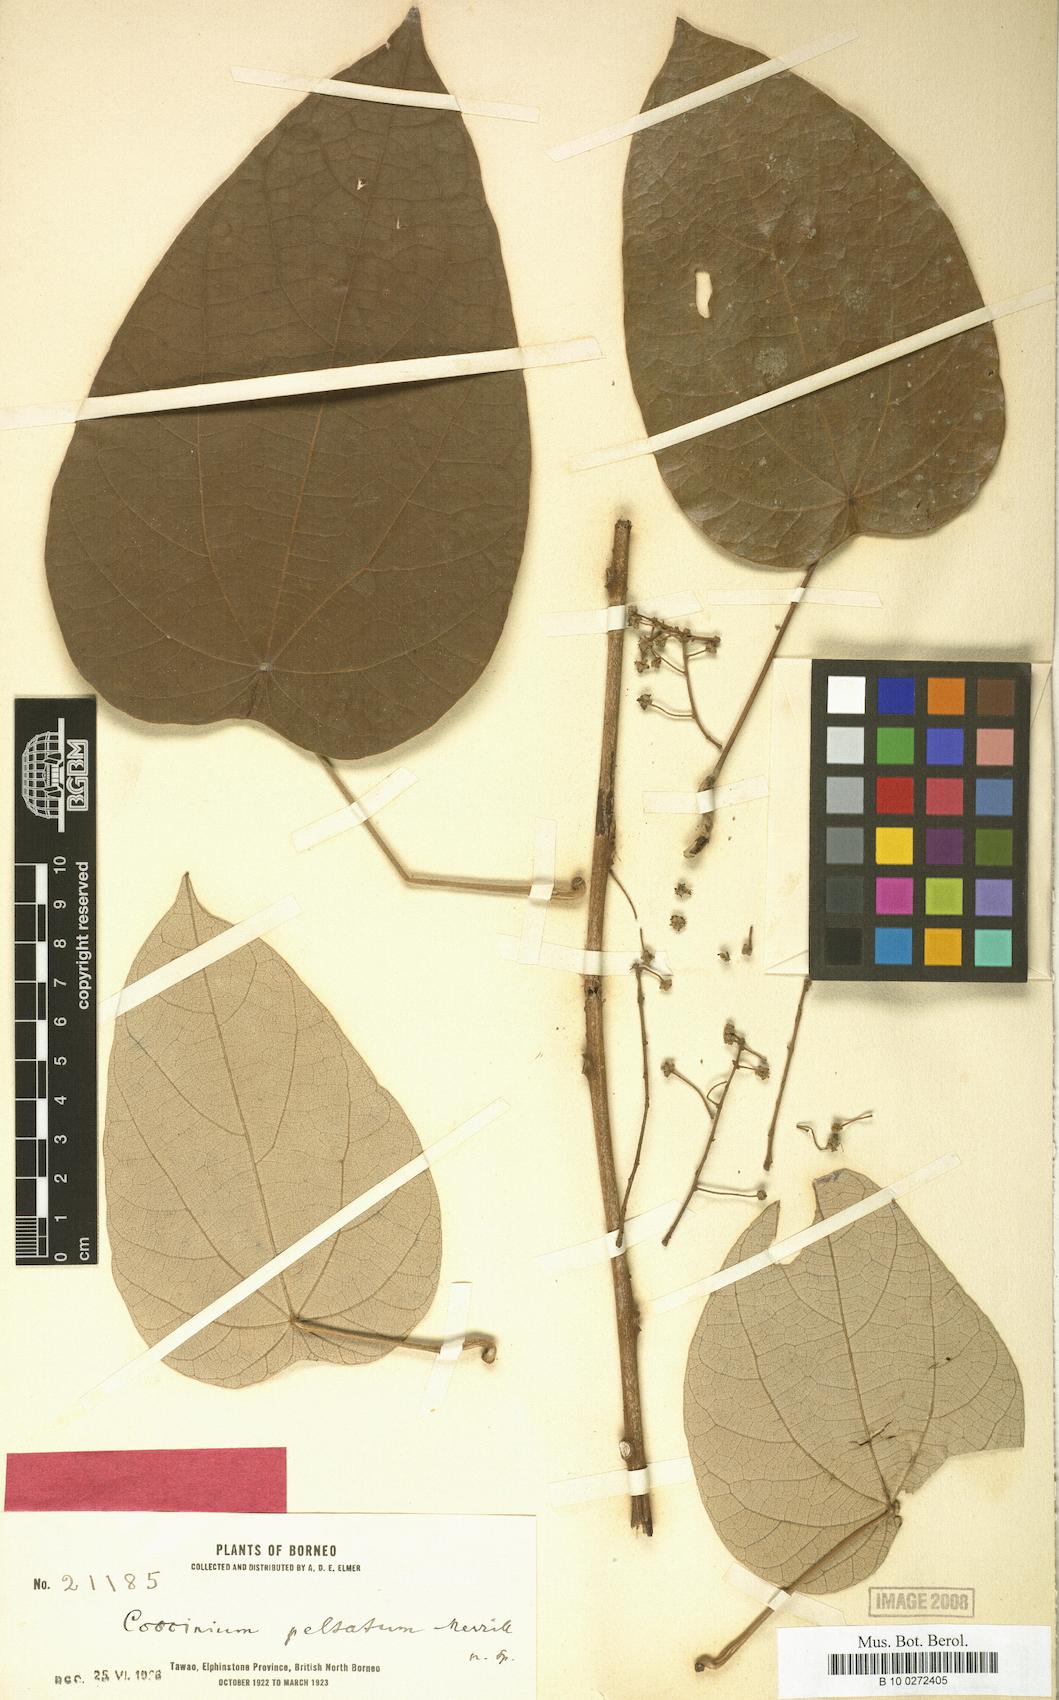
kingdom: Plantae
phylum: Tracheophyta
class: Magnoliopsida
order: Ranunculales
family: Menispermaceae
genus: Coscinium
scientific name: Coscinium fenestratum
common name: False calumba
